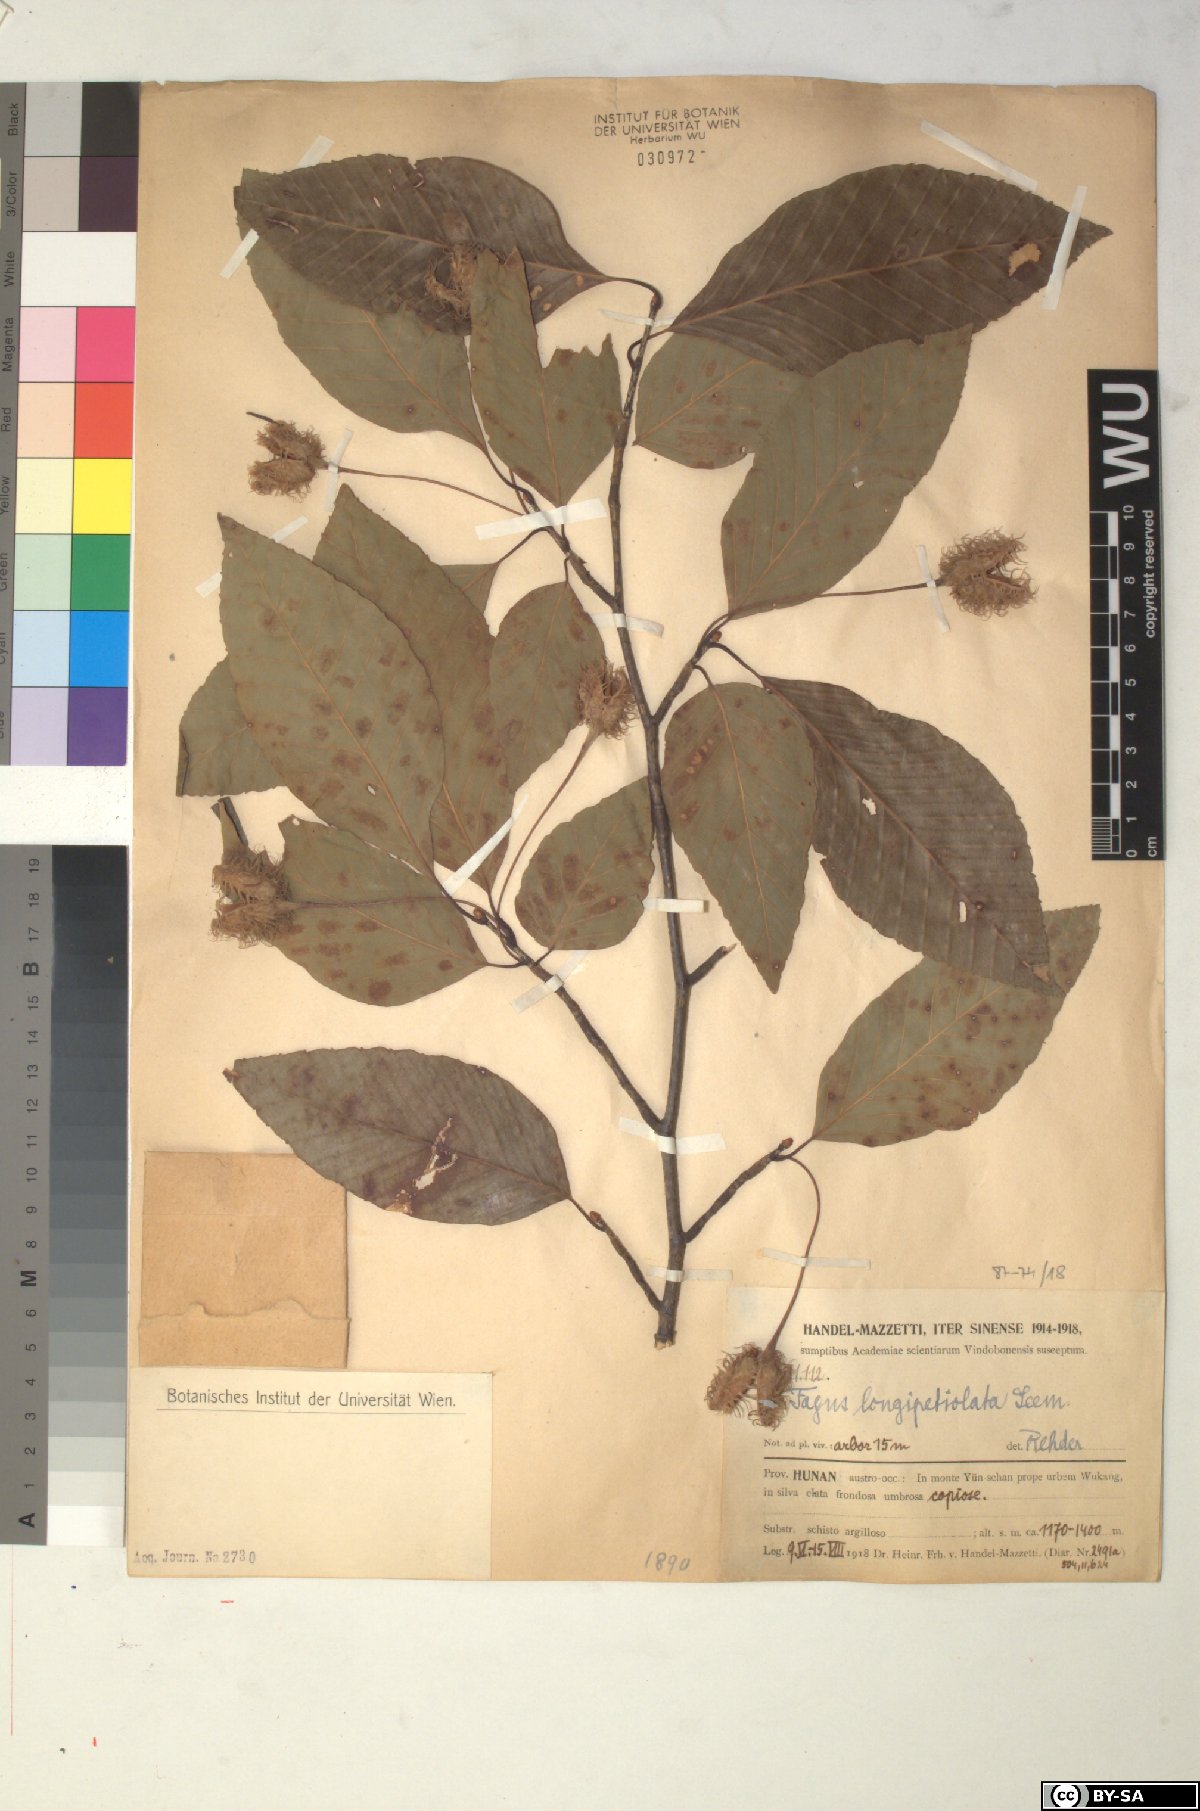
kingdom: Plantae
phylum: Tracheophyta
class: Magnoliopsida
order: Fagales
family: Fagaceae
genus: Fagus
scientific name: Fagus sinensis
